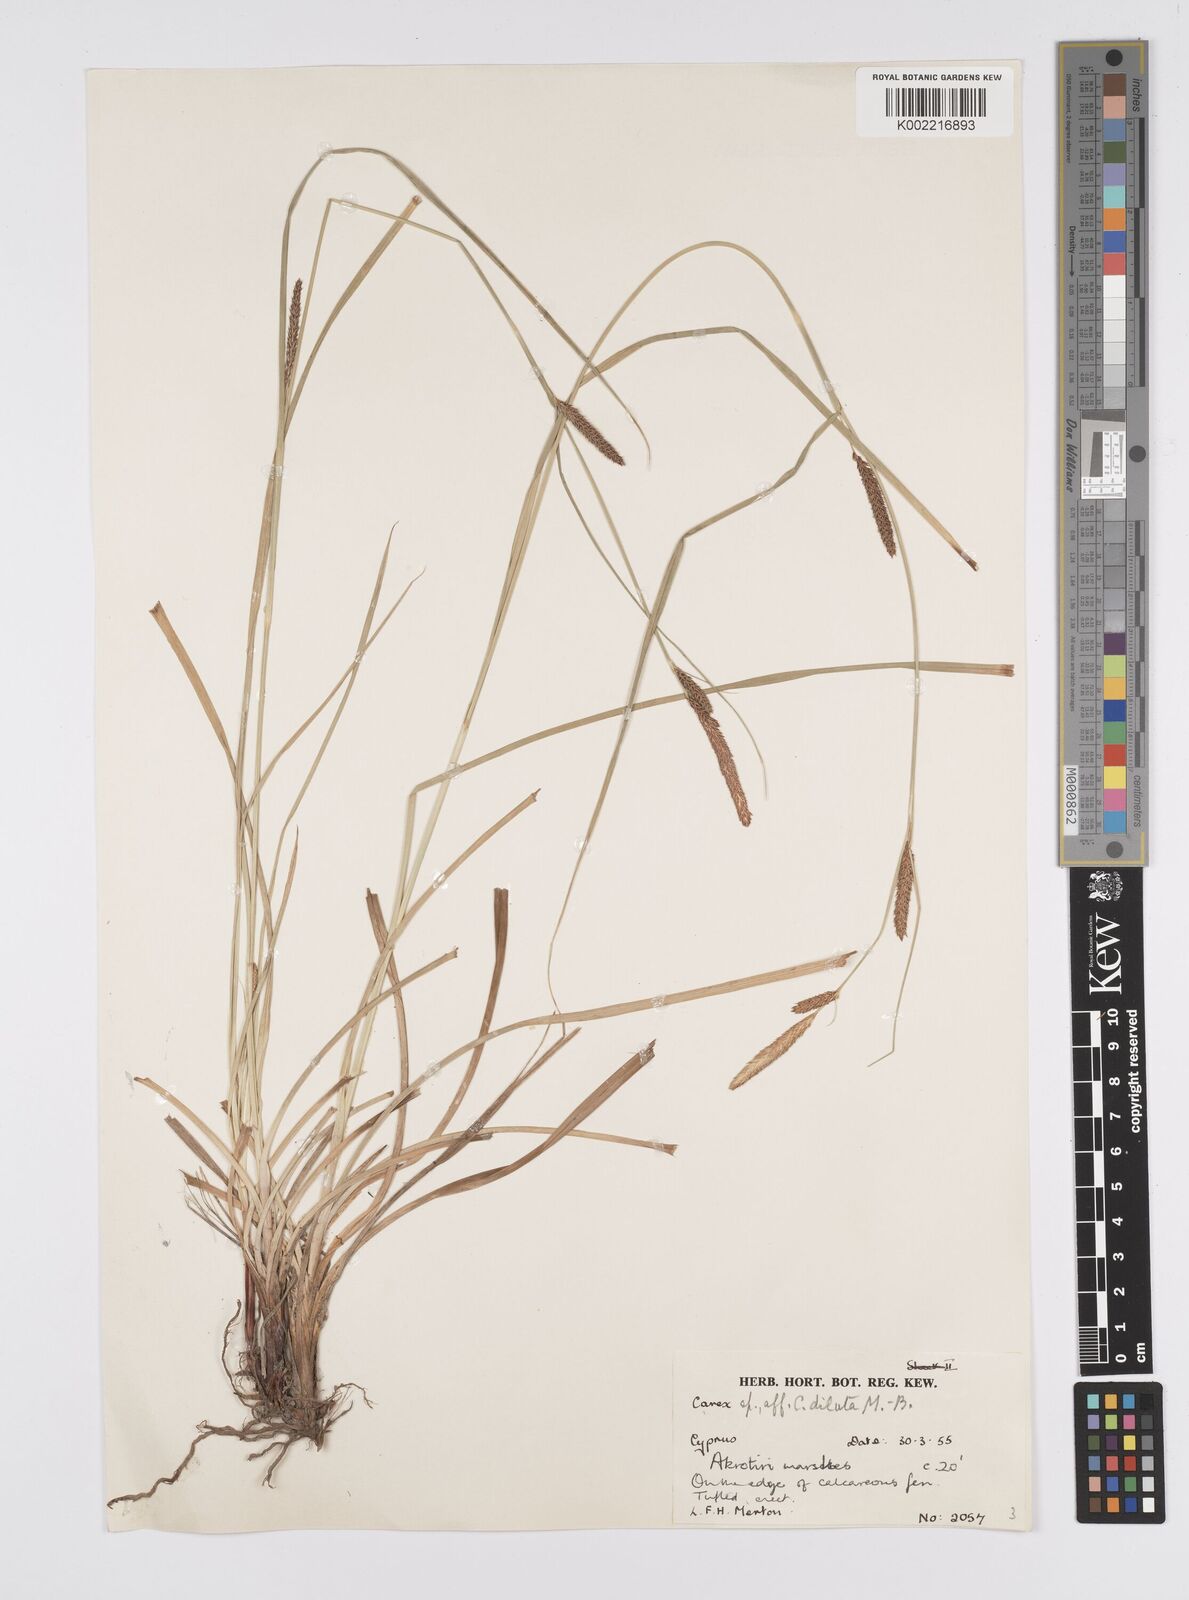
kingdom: Plantae
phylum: Tracheophyta
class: Liliopsida
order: Poales
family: Cyperaceae
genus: Carex
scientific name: Carex distans
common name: Distant sedge
